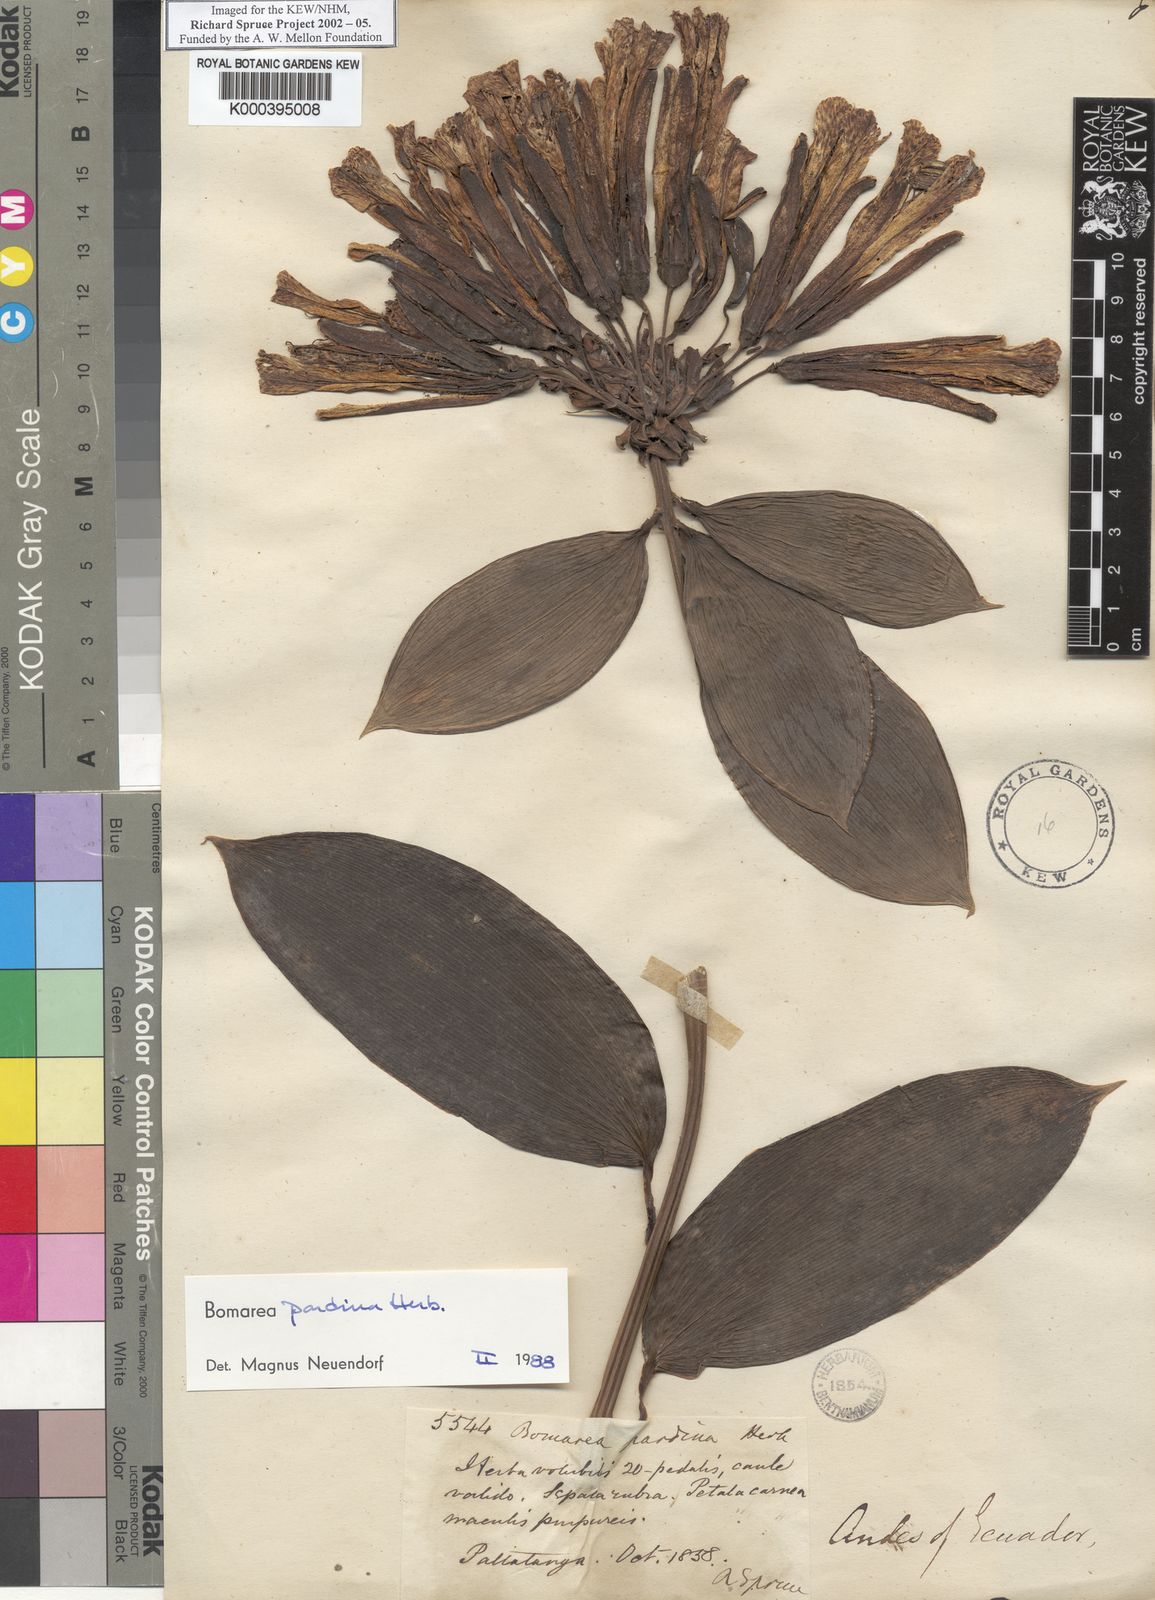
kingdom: Plantae
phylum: Tracheophyta
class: Liliopsida
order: Liliales
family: Alstroemeriaceae
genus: Bomarea
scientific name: Bomarea pardina
